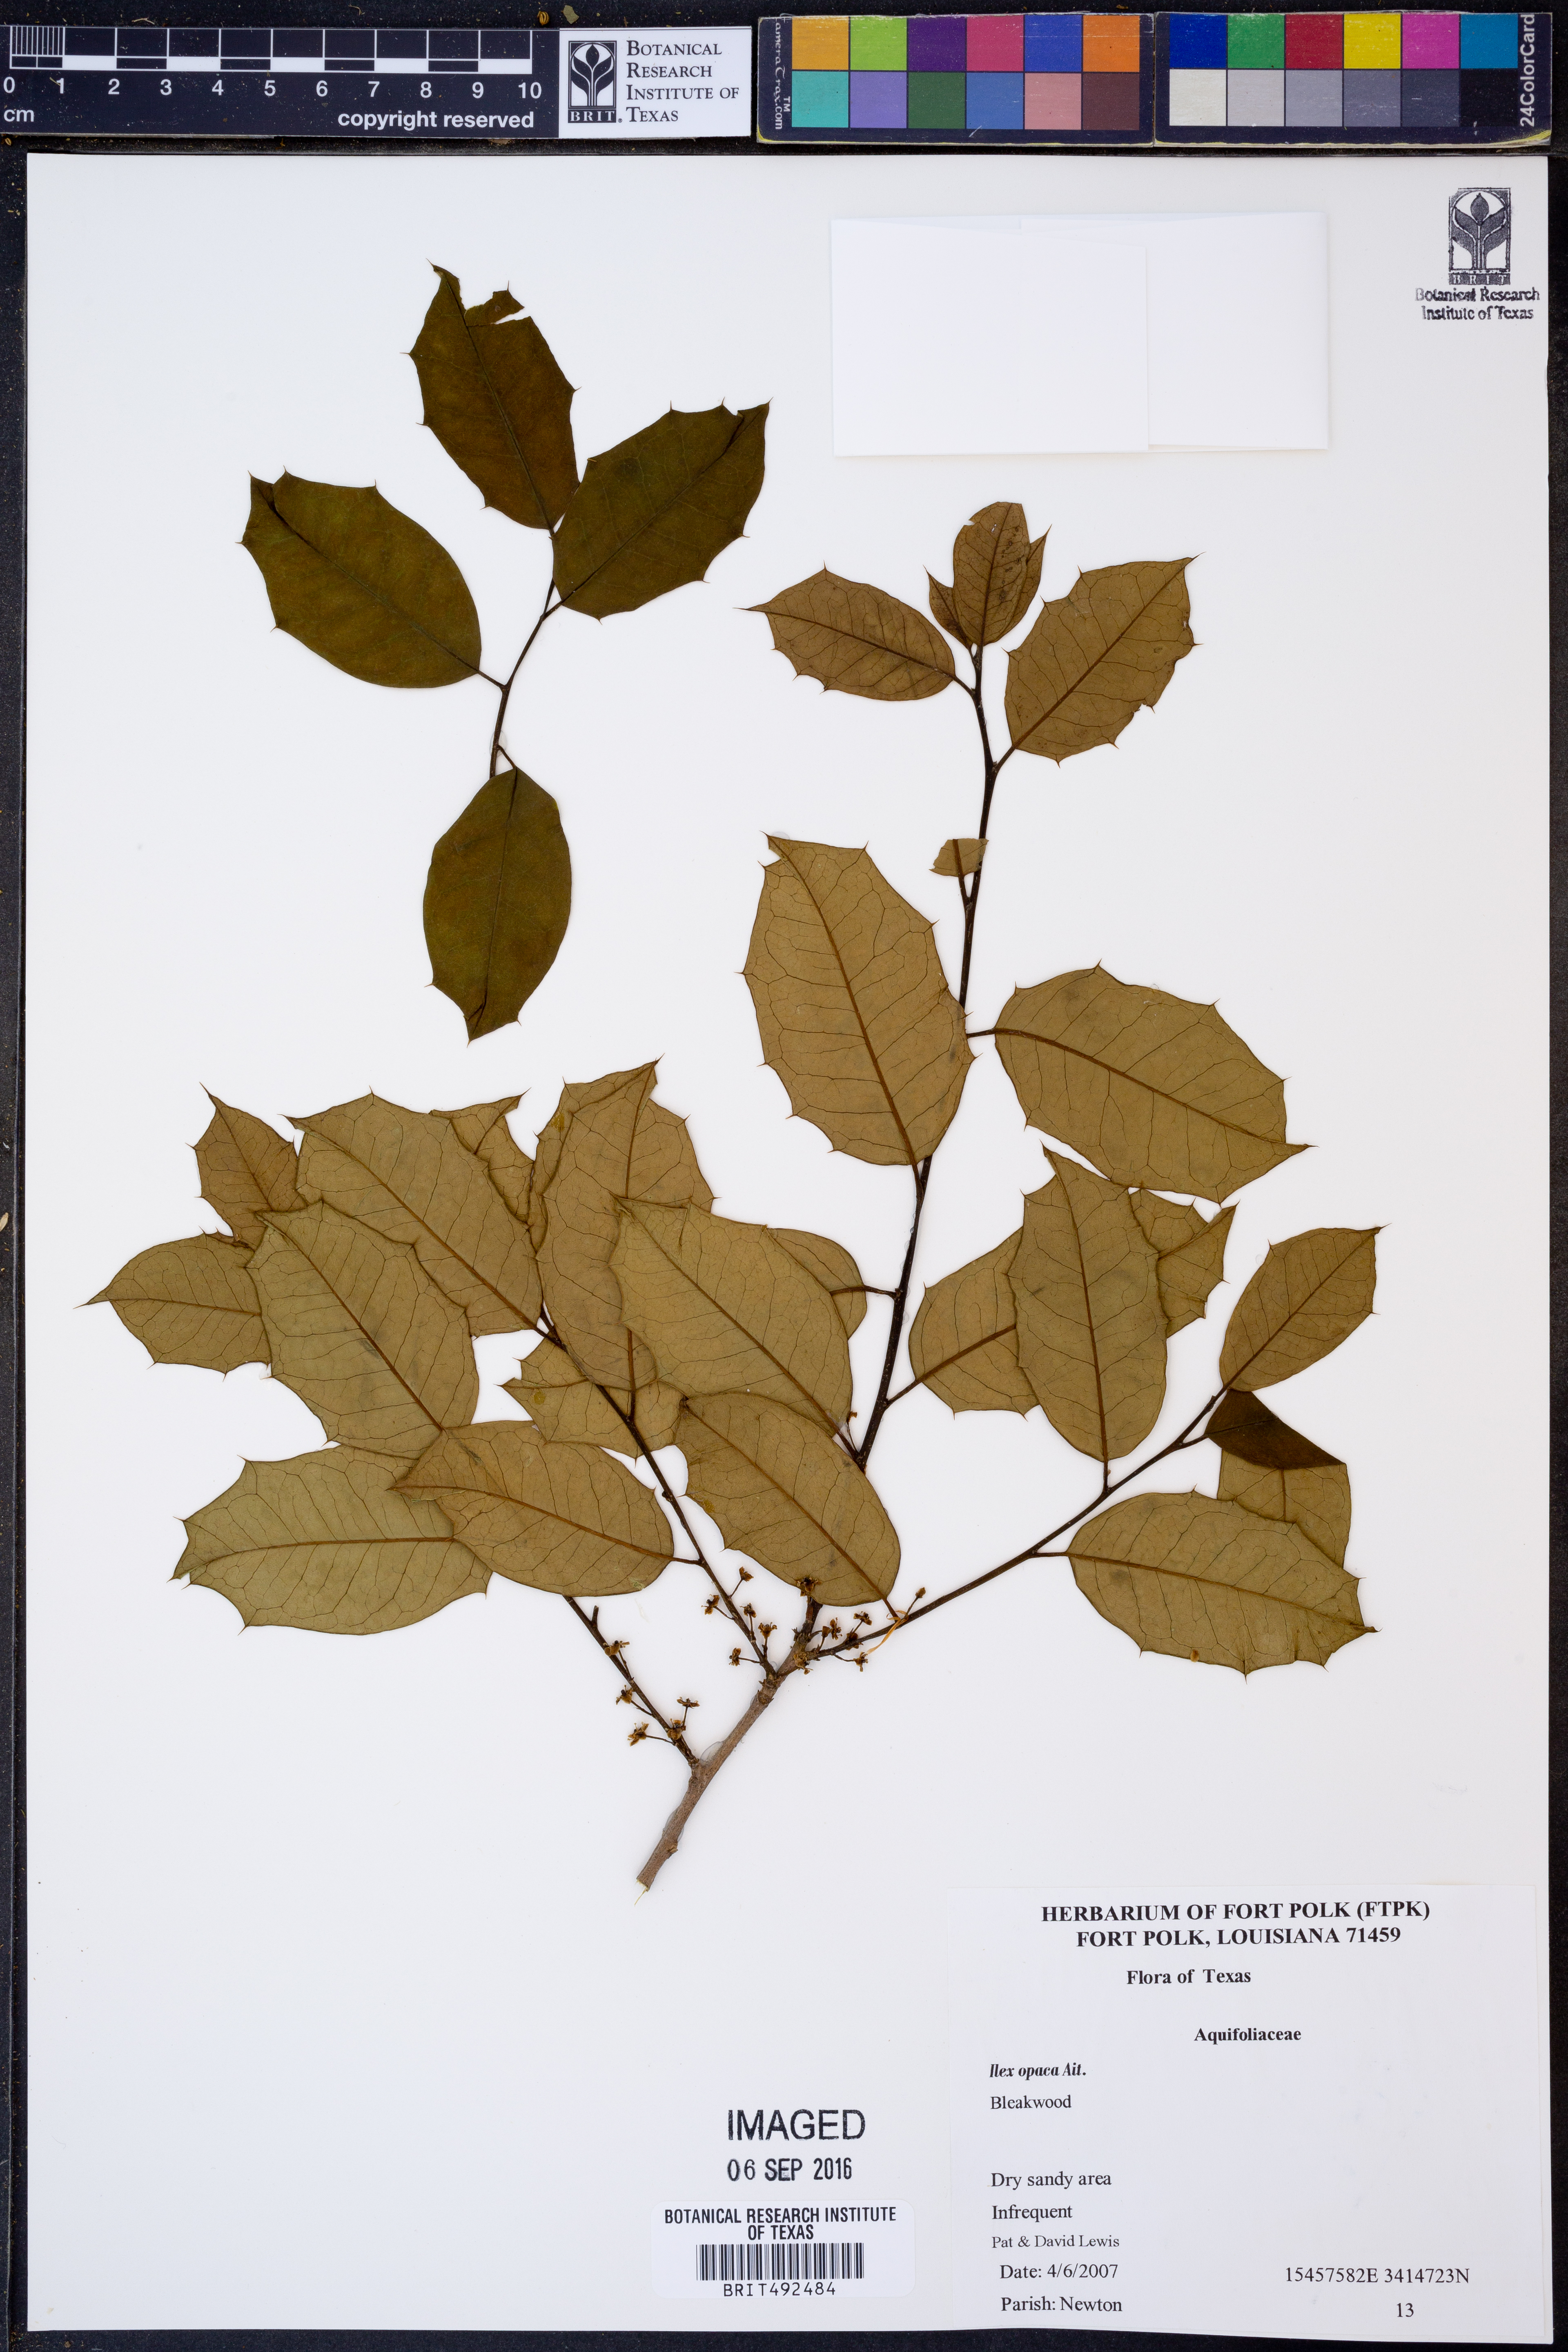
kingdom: Plantae
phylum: Tracheophyta
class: Magnoliopsida
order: Aquifoliales
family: Aquifoliaceae
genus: Ilex
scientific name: Ilex opaca
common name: American holly
